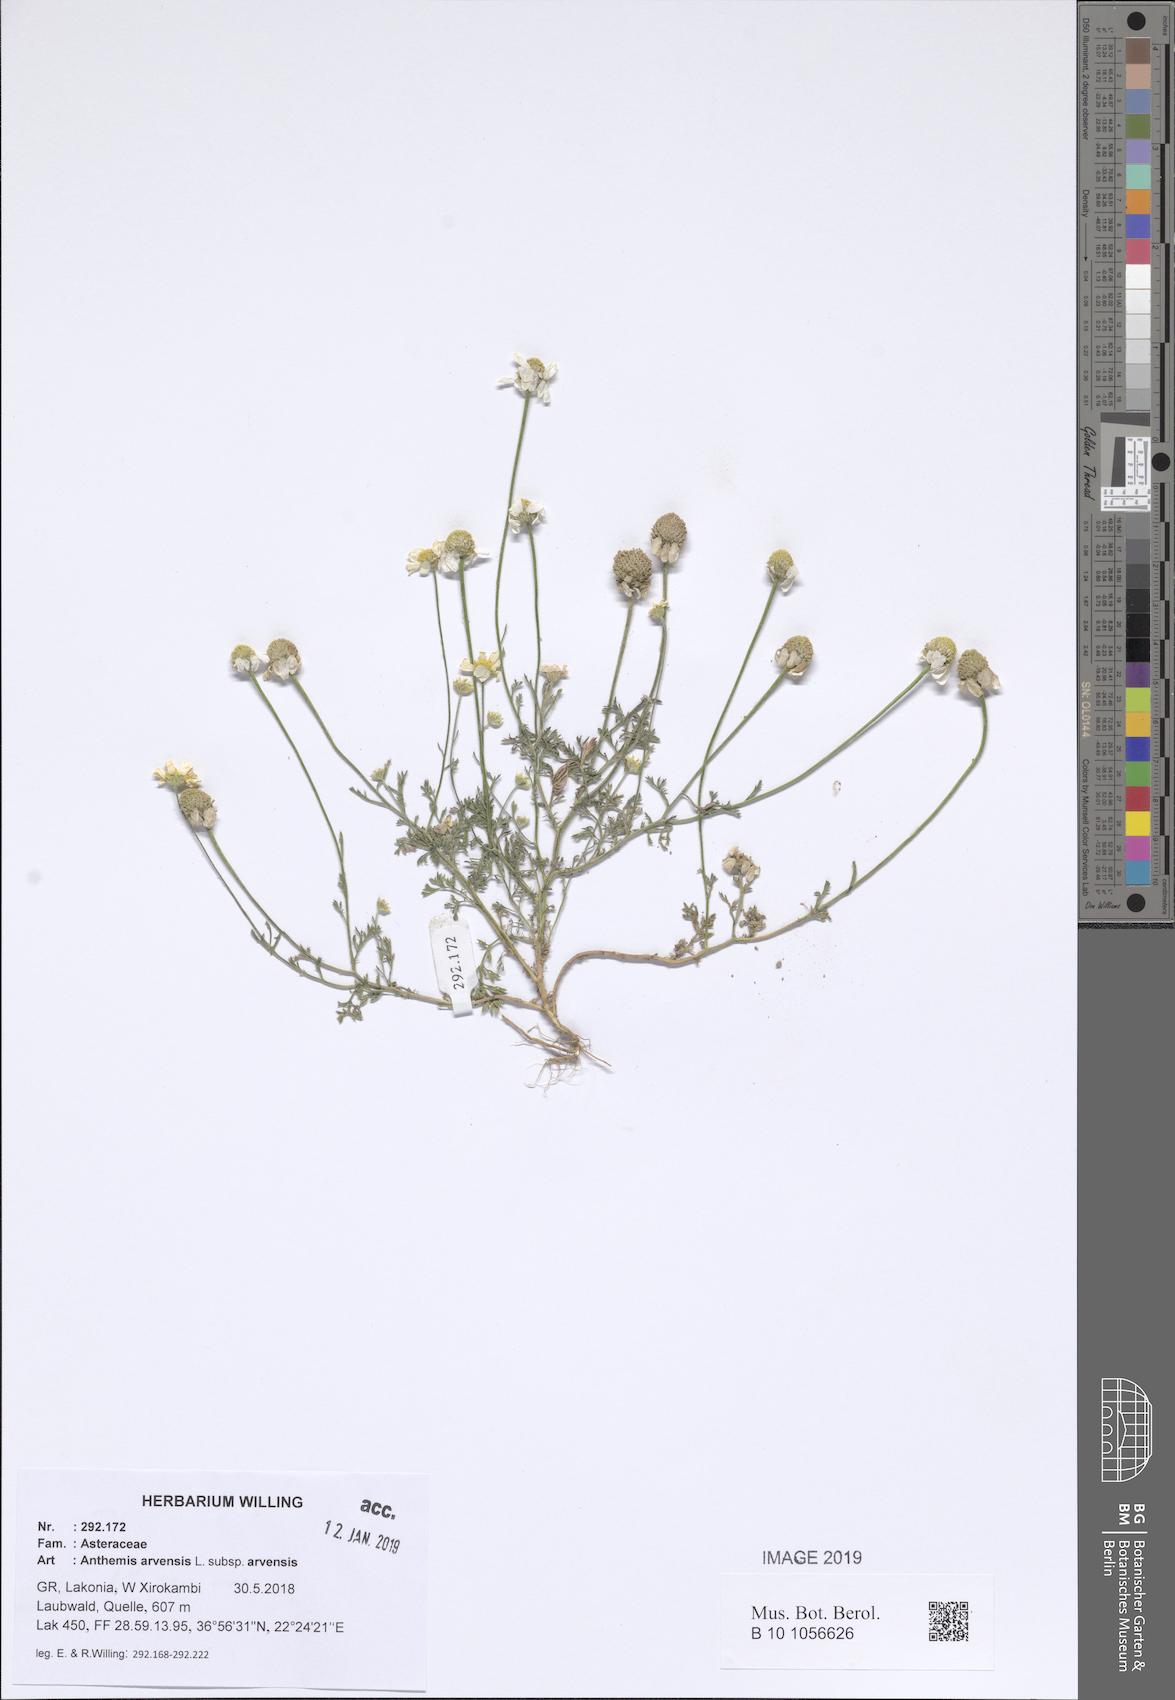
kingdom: Plantae
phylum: Tracheophyta
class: Magnoliopsida
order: Asterales
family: Asteraceae
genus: Anthemis
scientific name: Anthemis arvensis
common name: Corn chamomile
